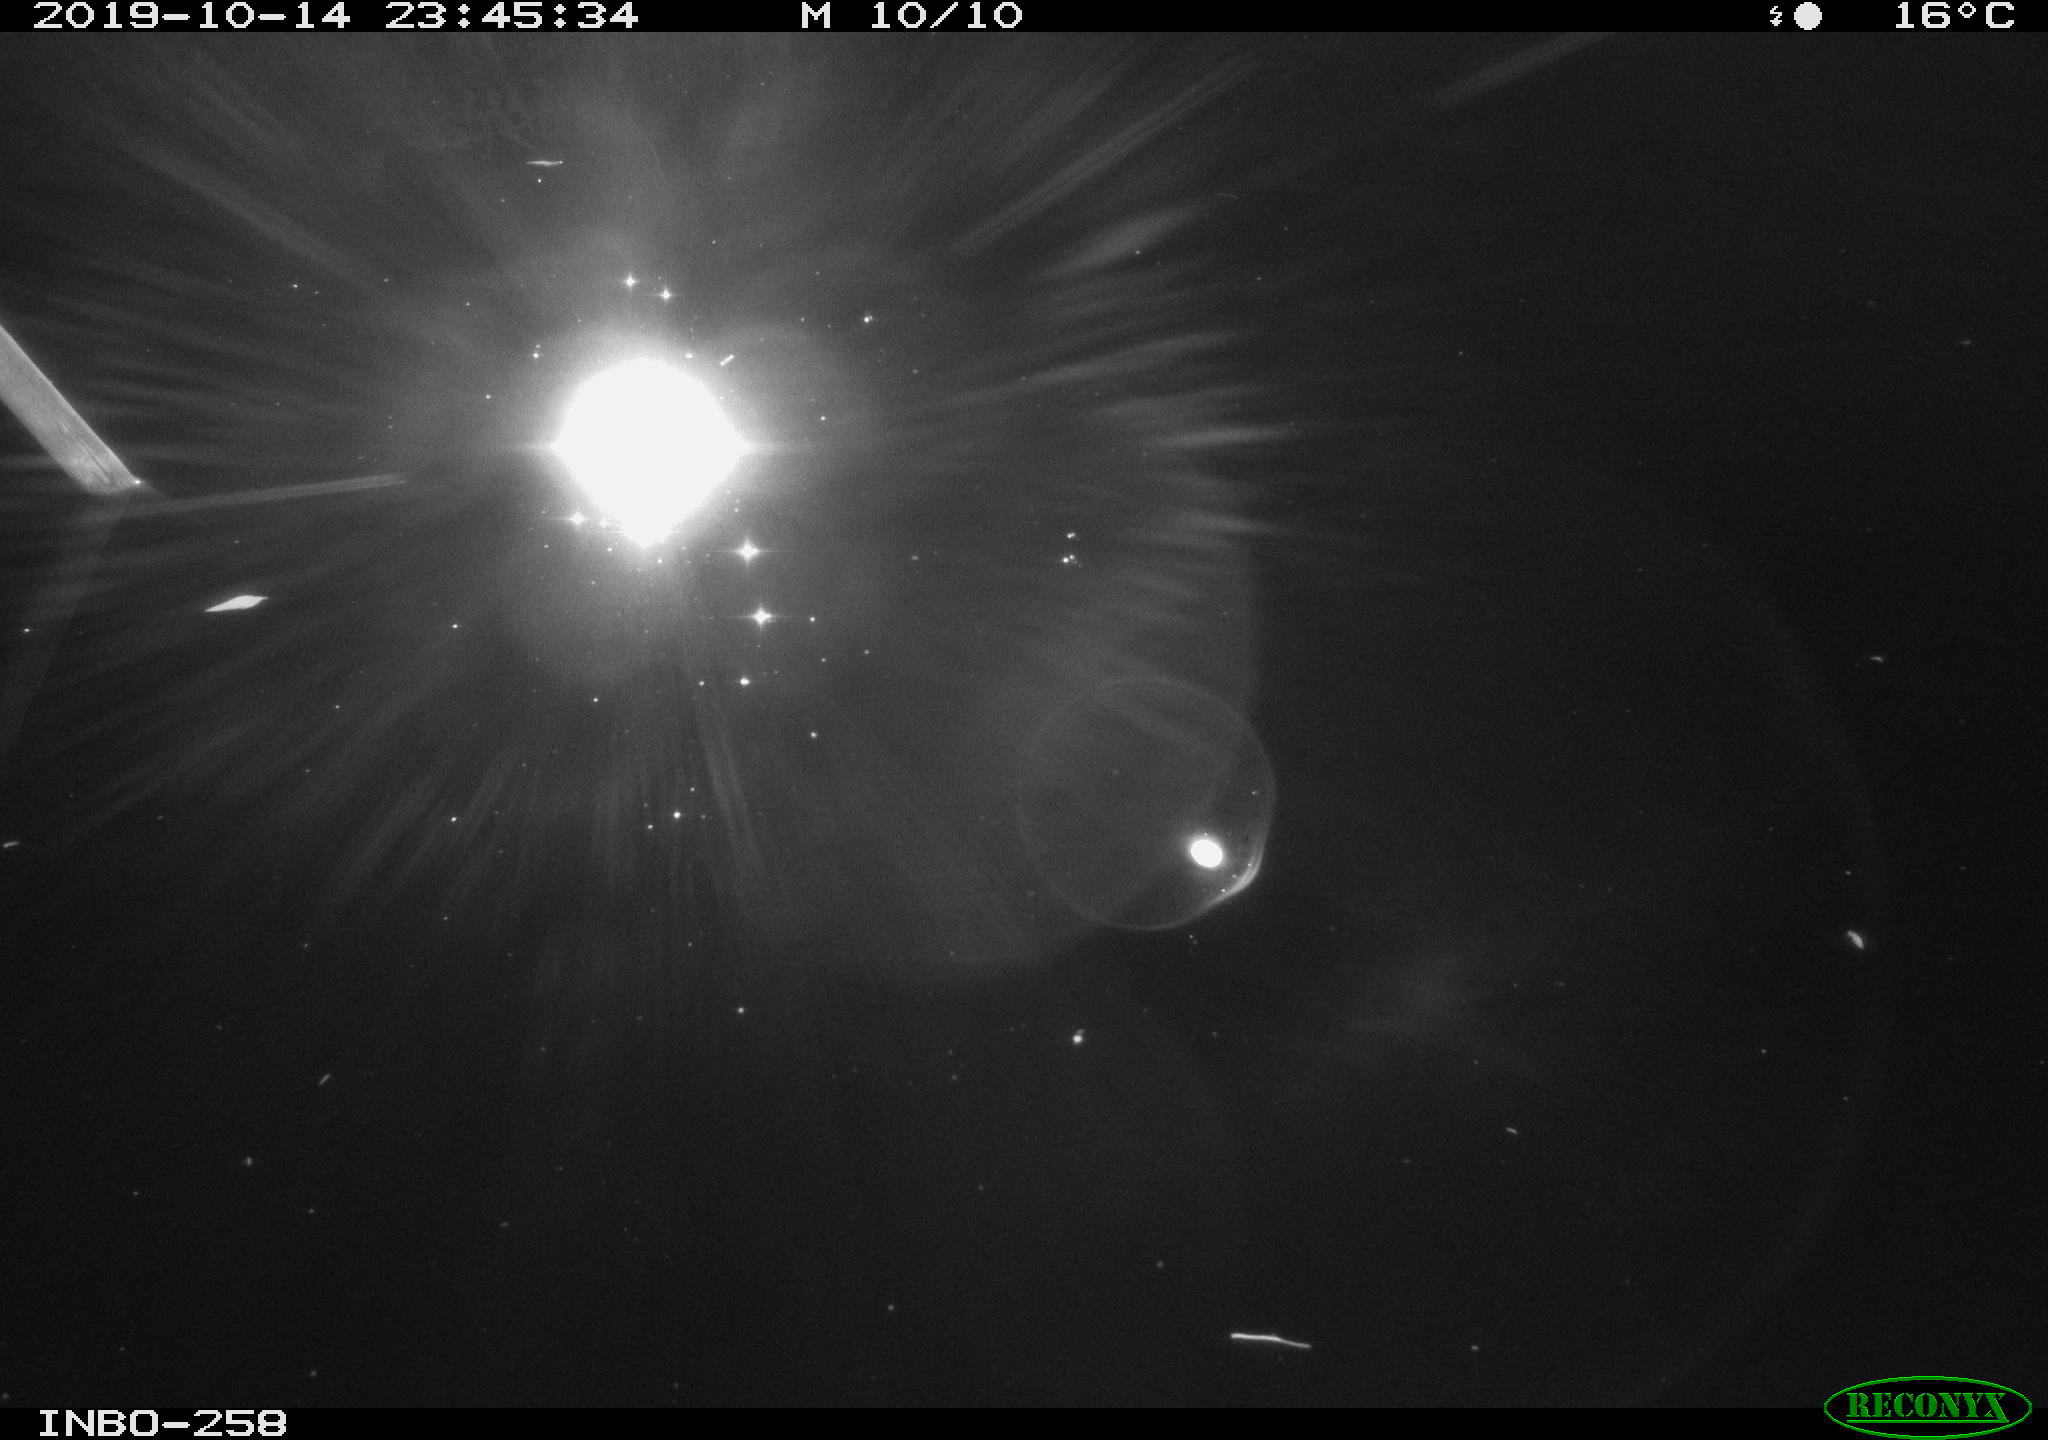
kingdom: Animalia
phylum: Chordata
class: Aves
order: Anseriformes
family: Anatidae
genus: Anas
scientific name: Anas platyrhynchos
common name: Mallard
